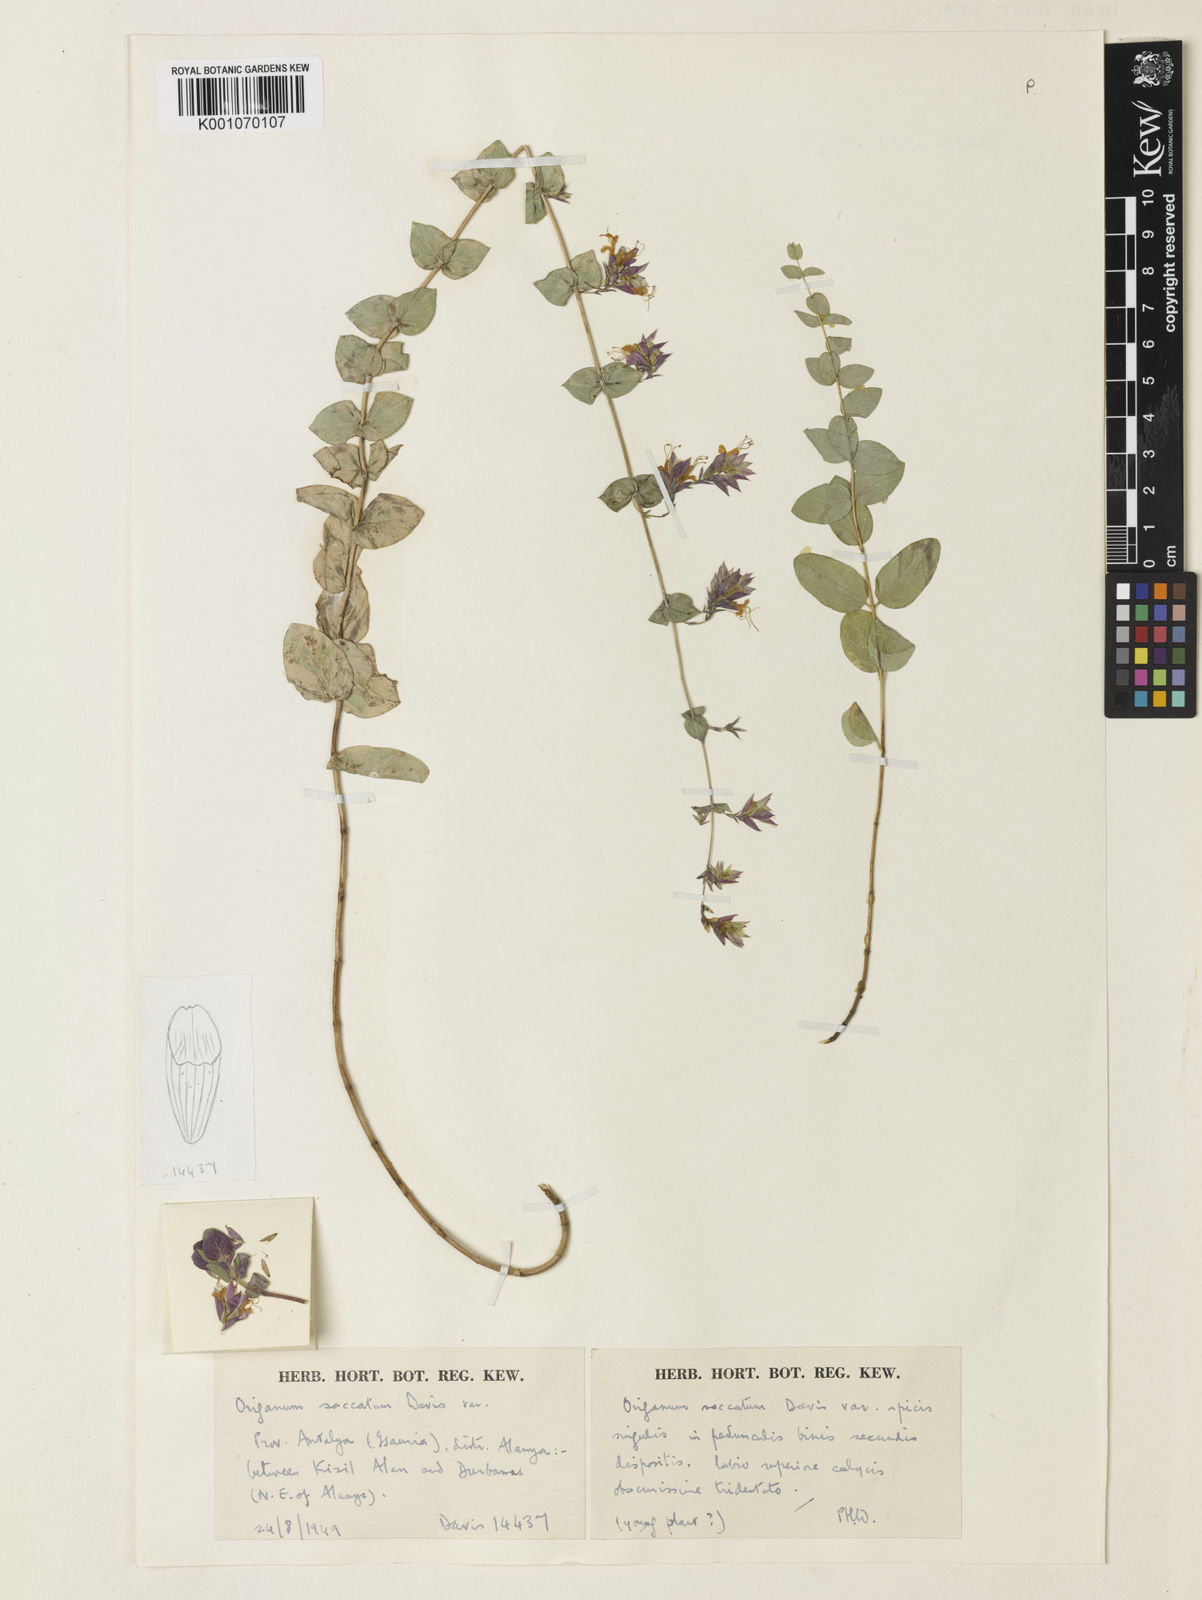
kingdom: Plantae
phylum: Tracheophyta
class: Magnoliopsida
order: Lamiales
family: Lamiaceae
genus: Origanum
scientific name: Origanum saccatum
